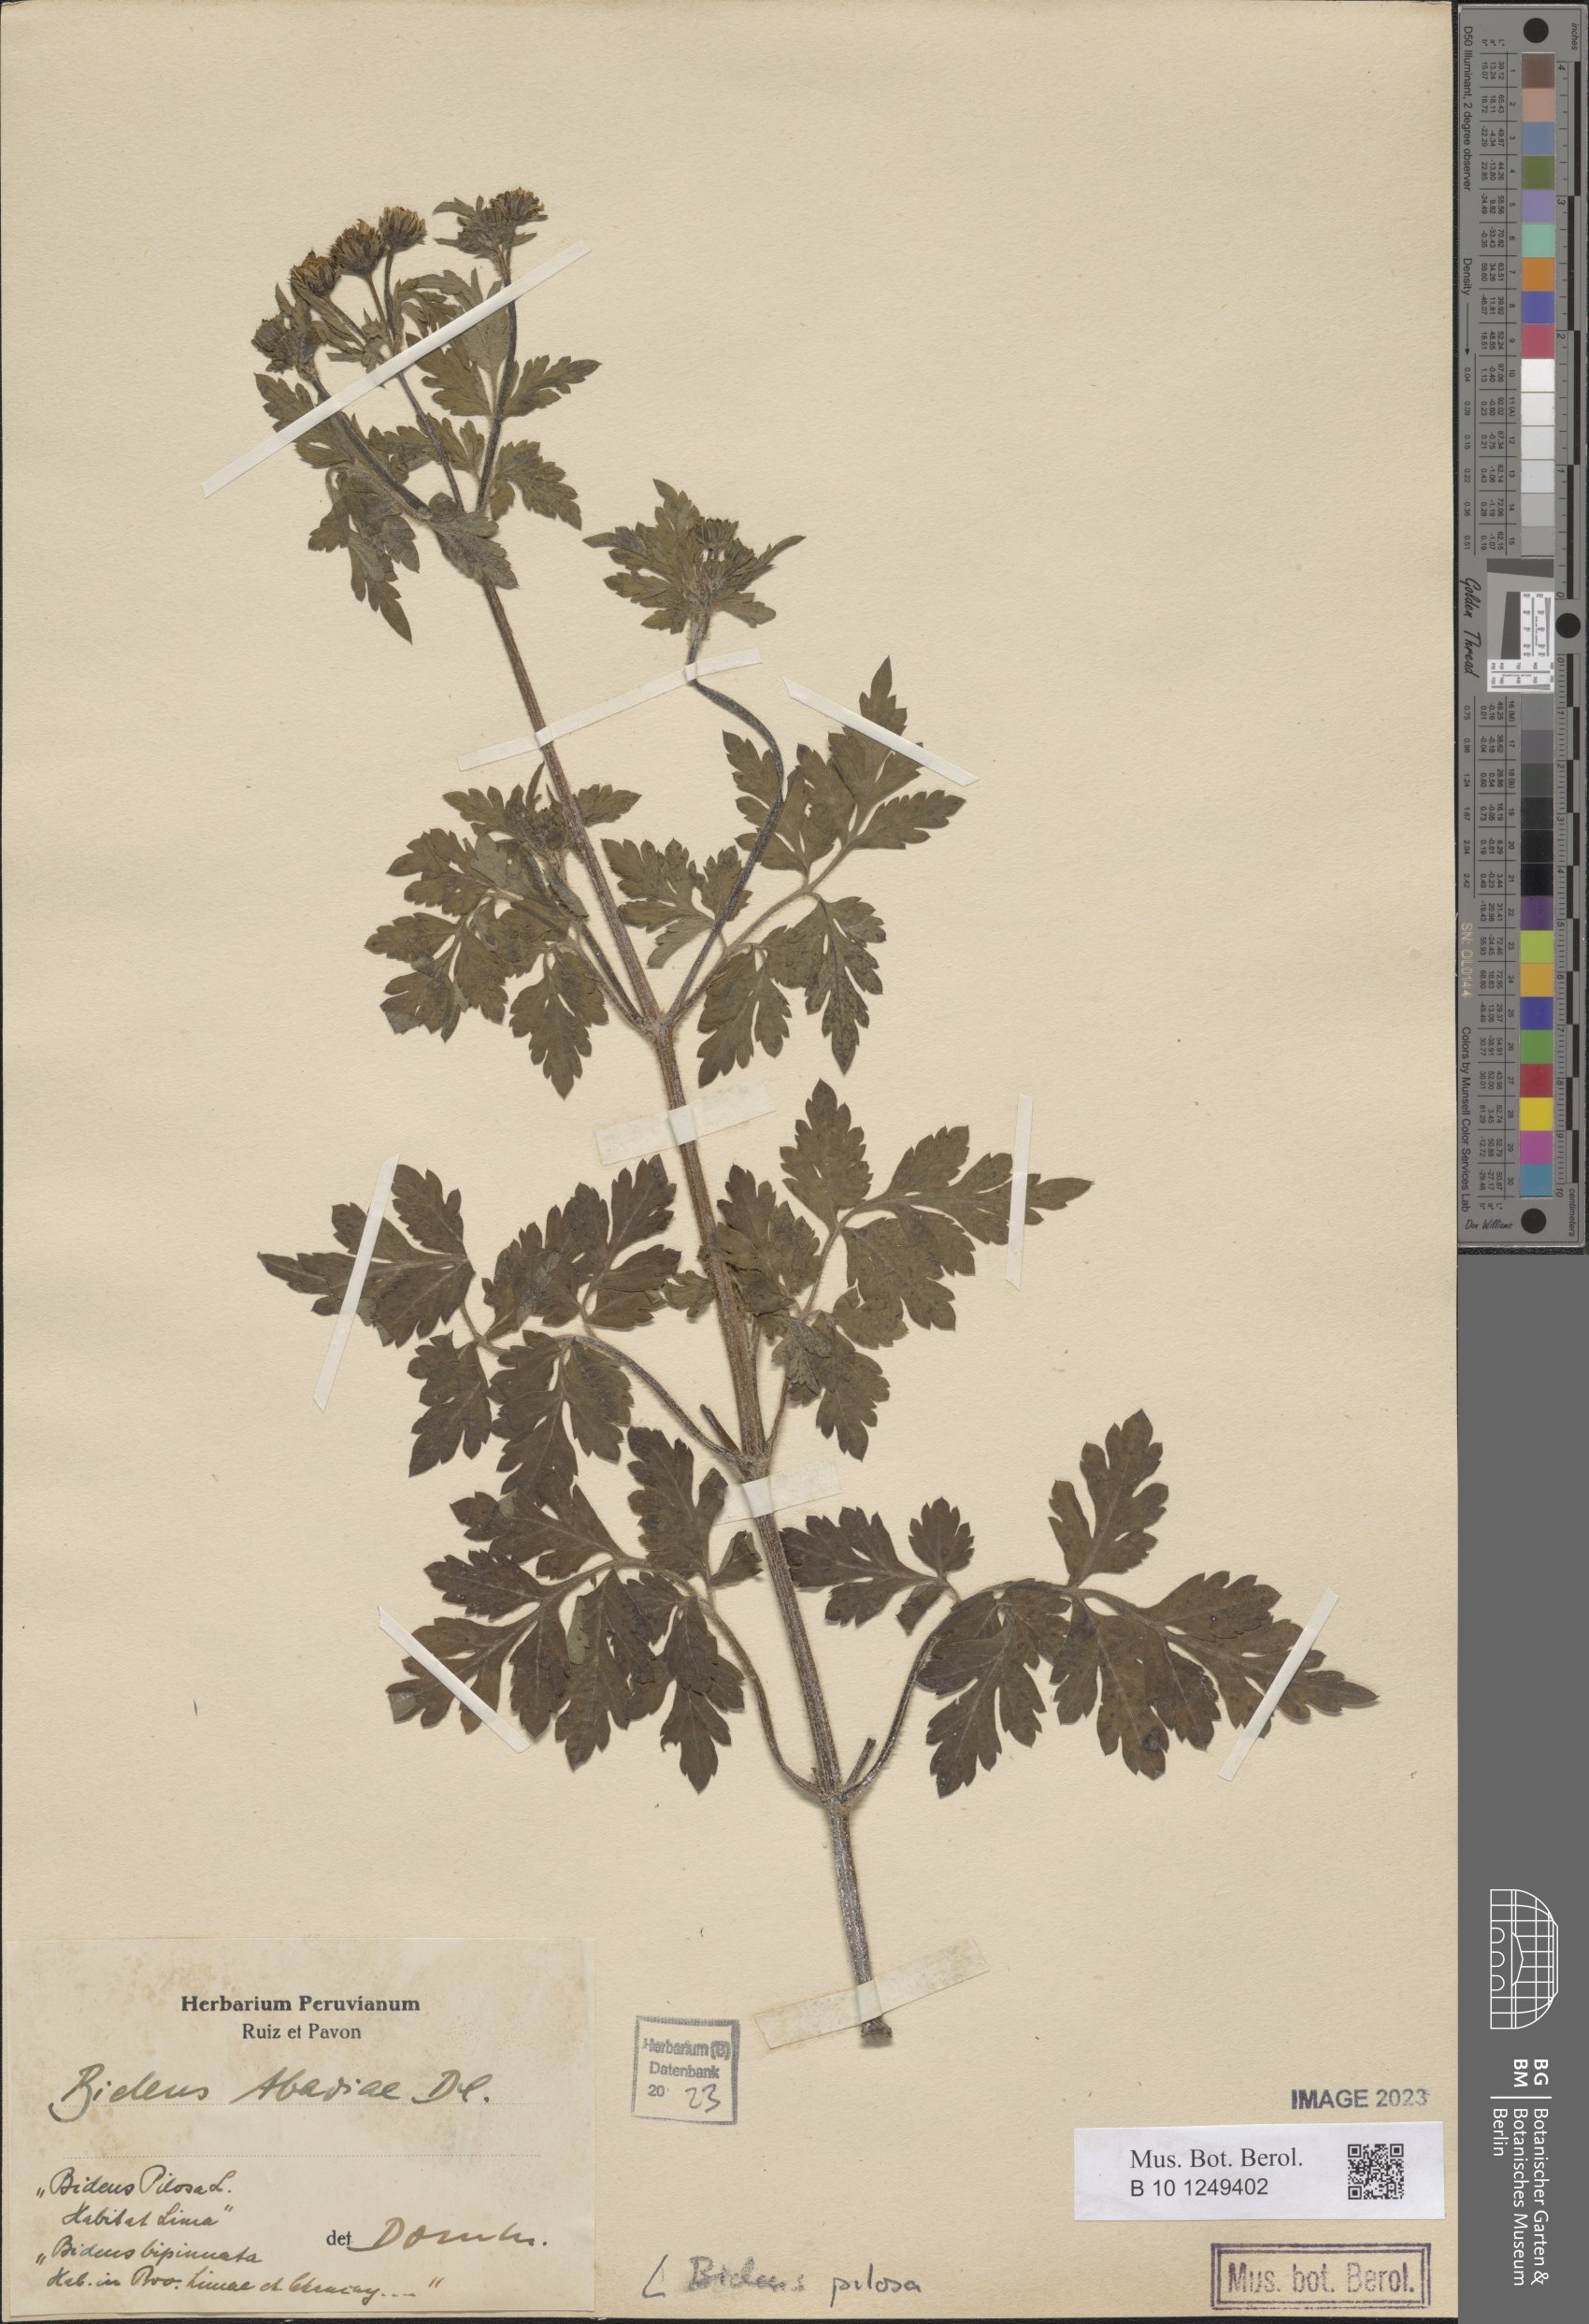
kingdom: Plantae
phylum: Tracheophyta
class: Magnoliopsida
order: Asterales
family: Asteraceae
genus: Bidens
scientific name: Bidens pilosa
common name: Black-jack
